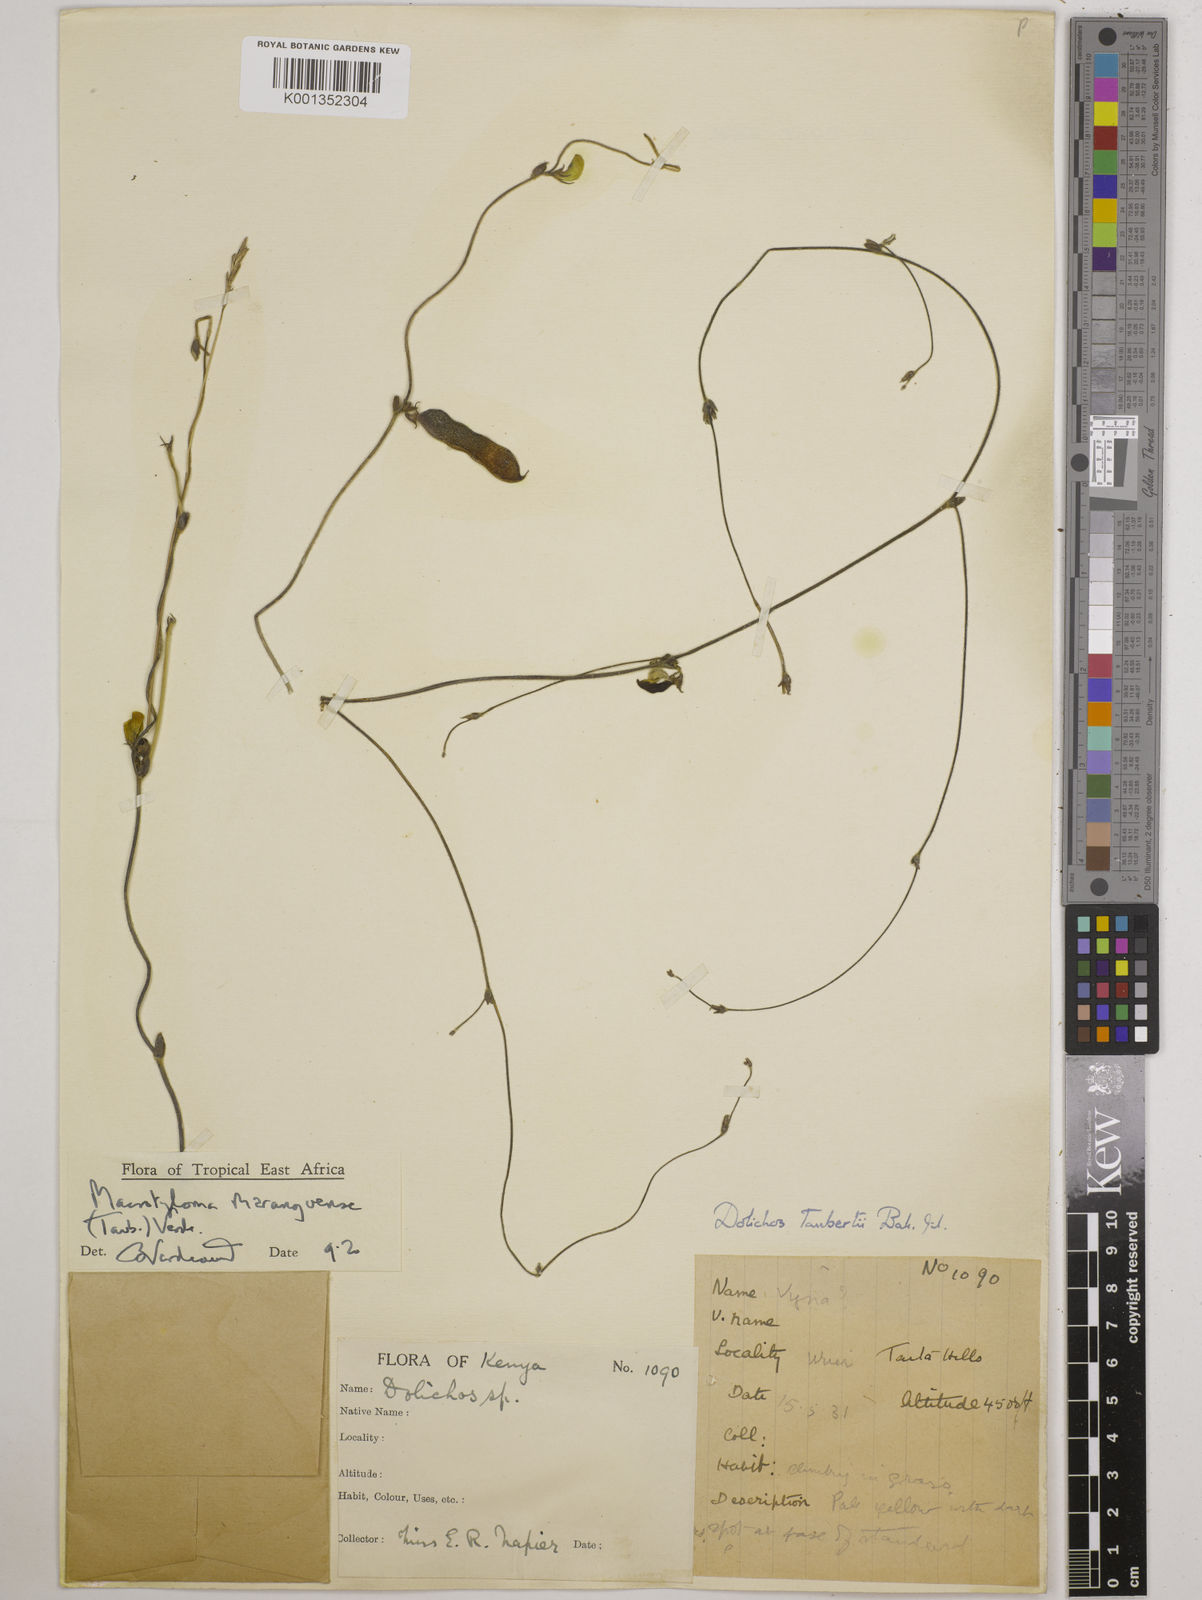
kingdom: Plantae
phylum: Tracheophyta
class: Magnoliopsida
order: Fabales
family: Fabaceae
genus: Macrotyloma
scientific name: Macrotyloma maranguense
